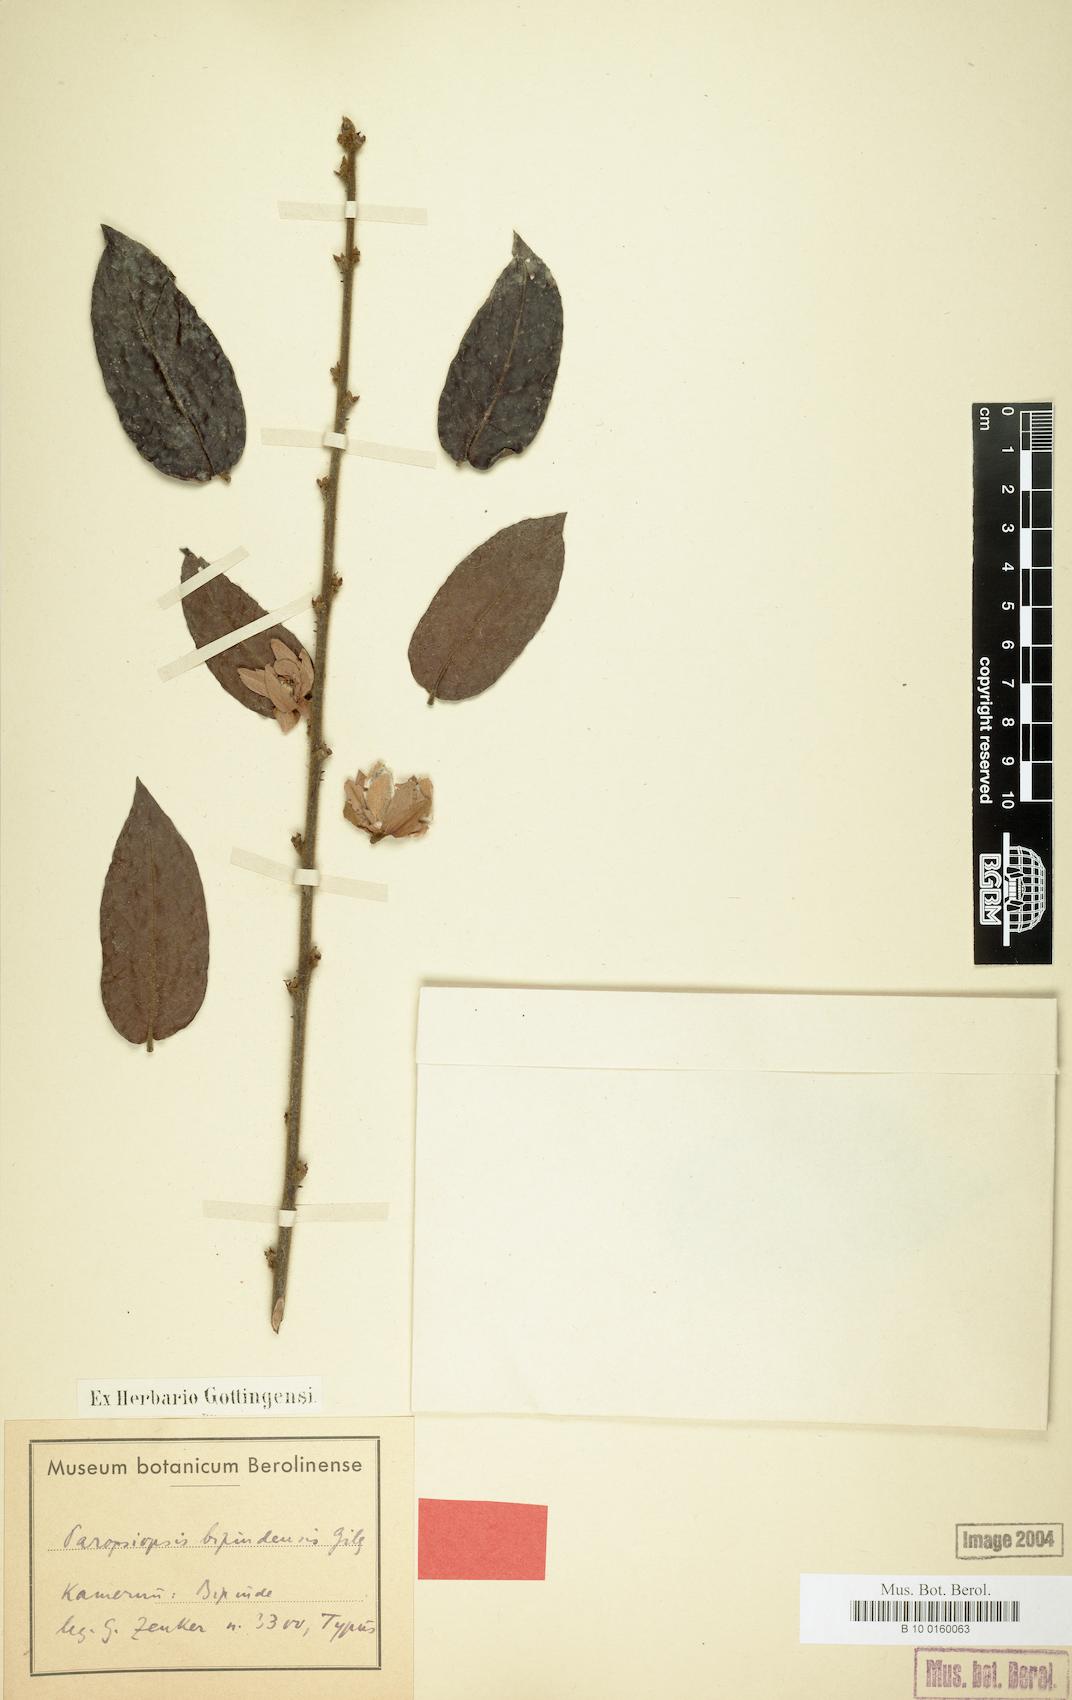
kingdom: Plantae
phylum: Tracheophyta
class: Magnoliopsida
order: Malpighiales
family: Passifloraceae
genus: Paropsiopsis
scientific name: Paropsiopsis decandra
